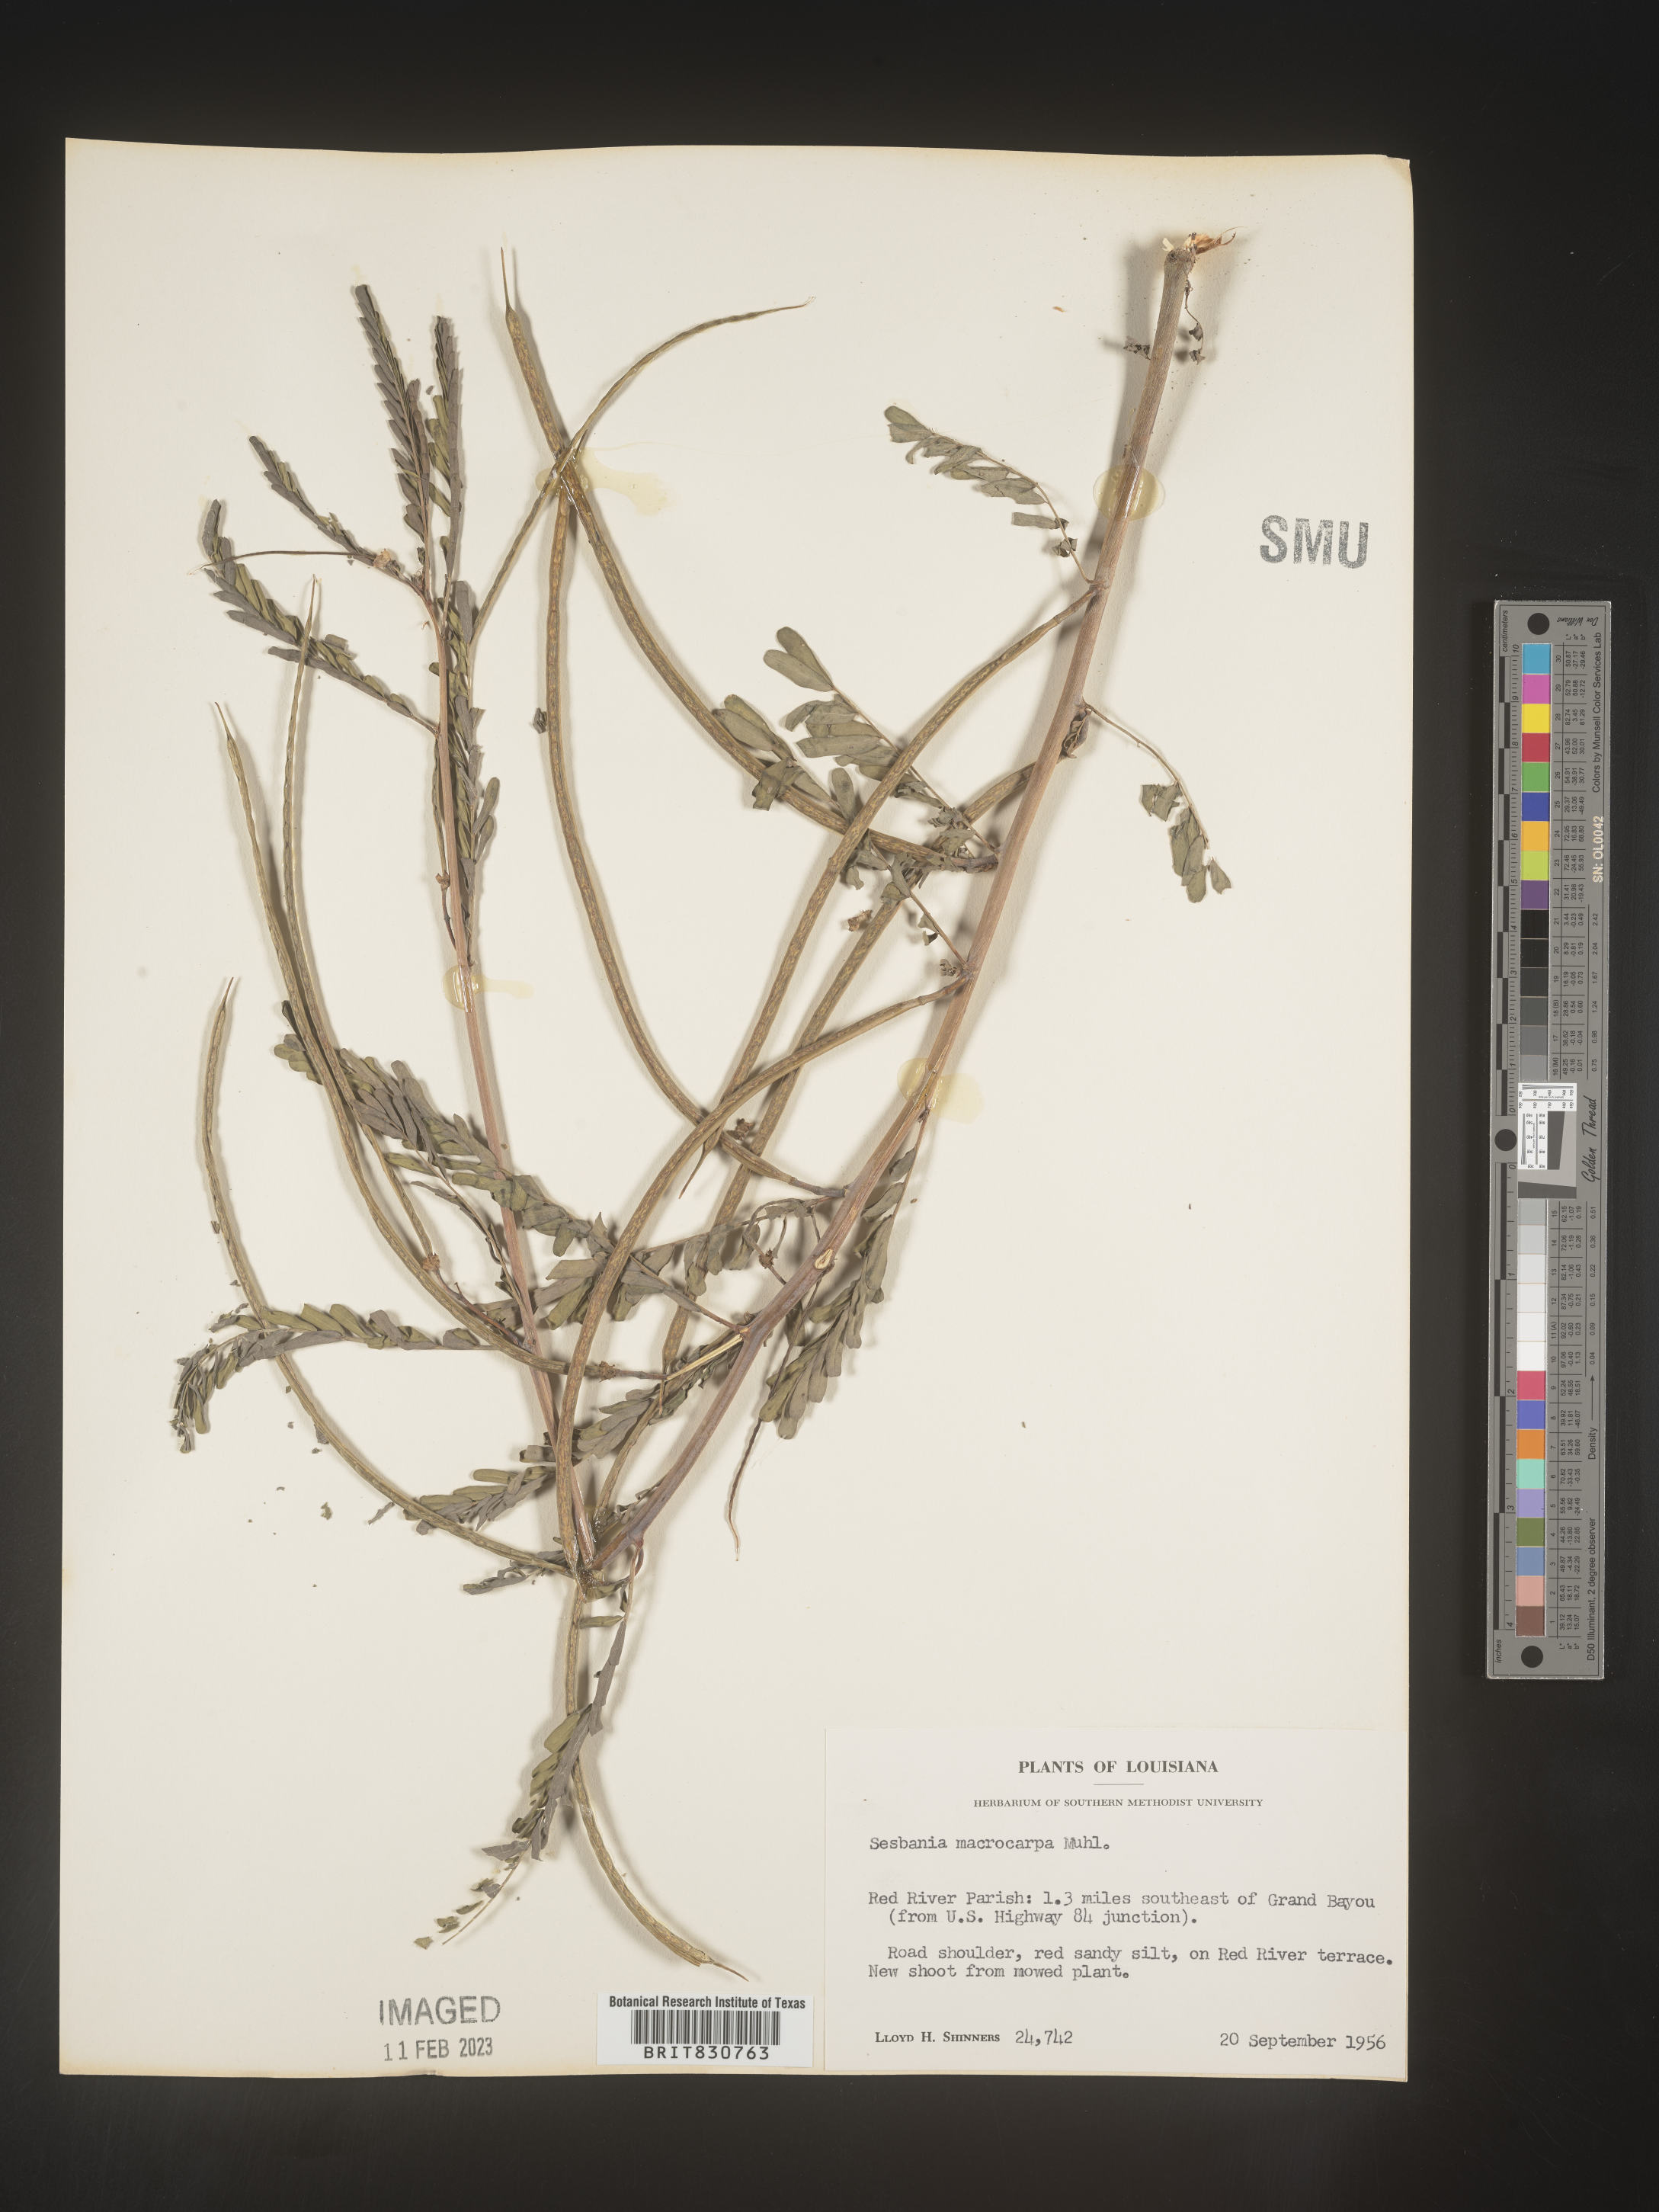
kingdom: Plantae
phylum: Tracheophyta
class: Magnoliopsida
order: Fabales
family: Fabaceae
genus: Sesbania
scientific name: Sesbania vesicaria
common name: Bagpod
